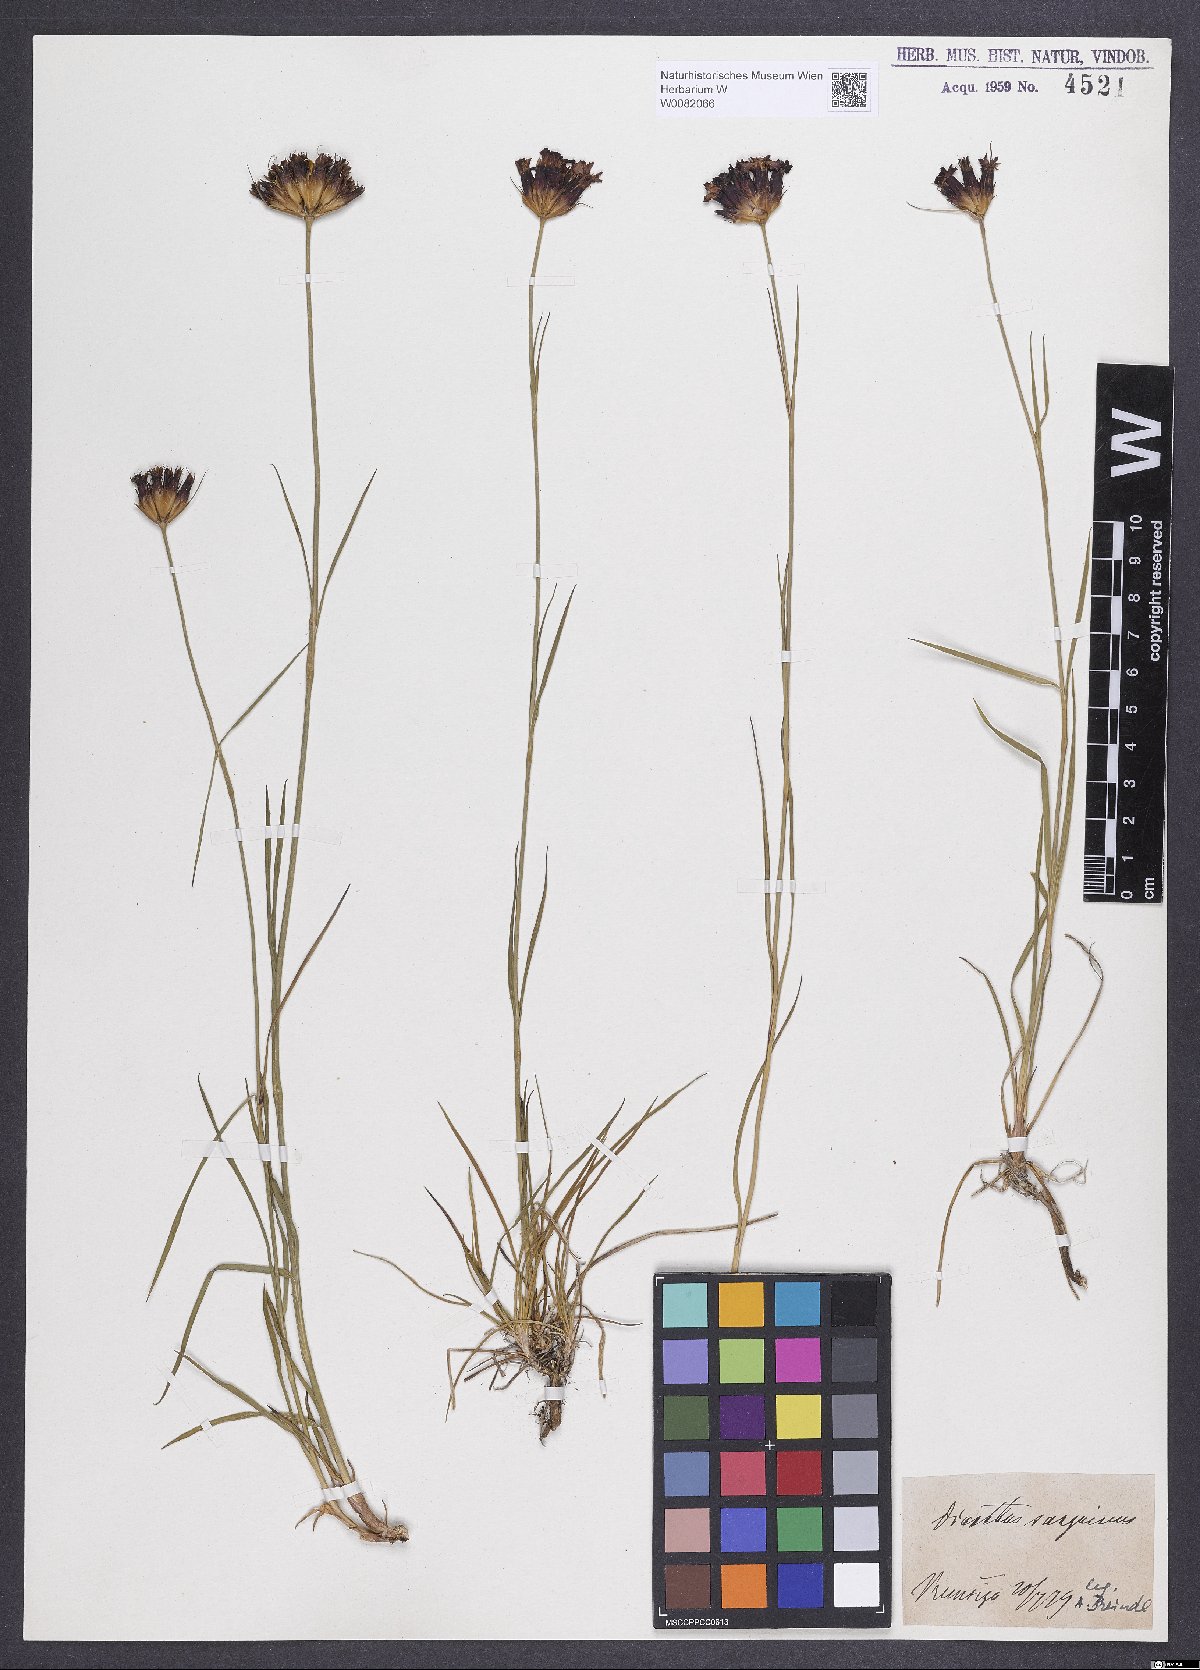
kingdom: Plantae
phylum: Tracheophyta
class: Magnoliopsida
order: Caryophyllales
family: Caryophyllaceae
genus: Dianthus
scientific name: Dianthus carthusianorum
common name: Carthusian pink
